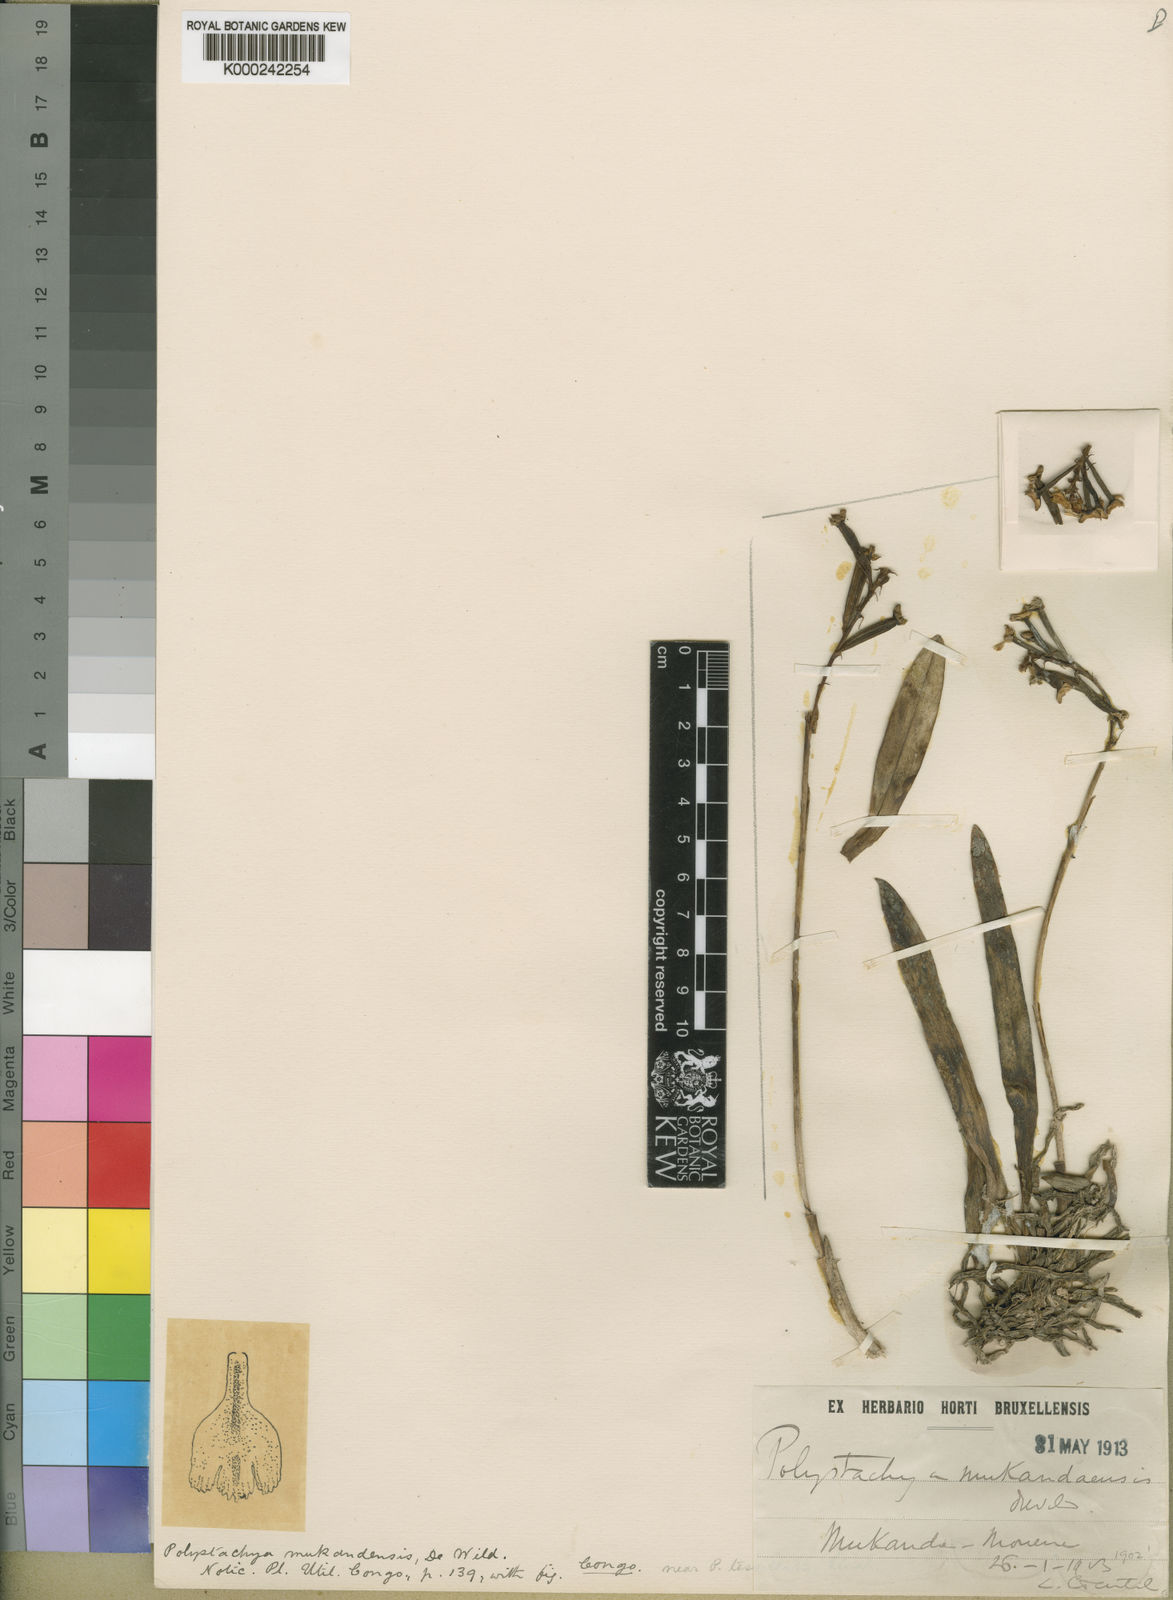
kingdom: Plantae
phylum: Tracheophyta
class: Liliopsida
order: Asparagales
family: Orchidaceae
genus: Polystachya
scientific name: Polystachya mukandaensis
